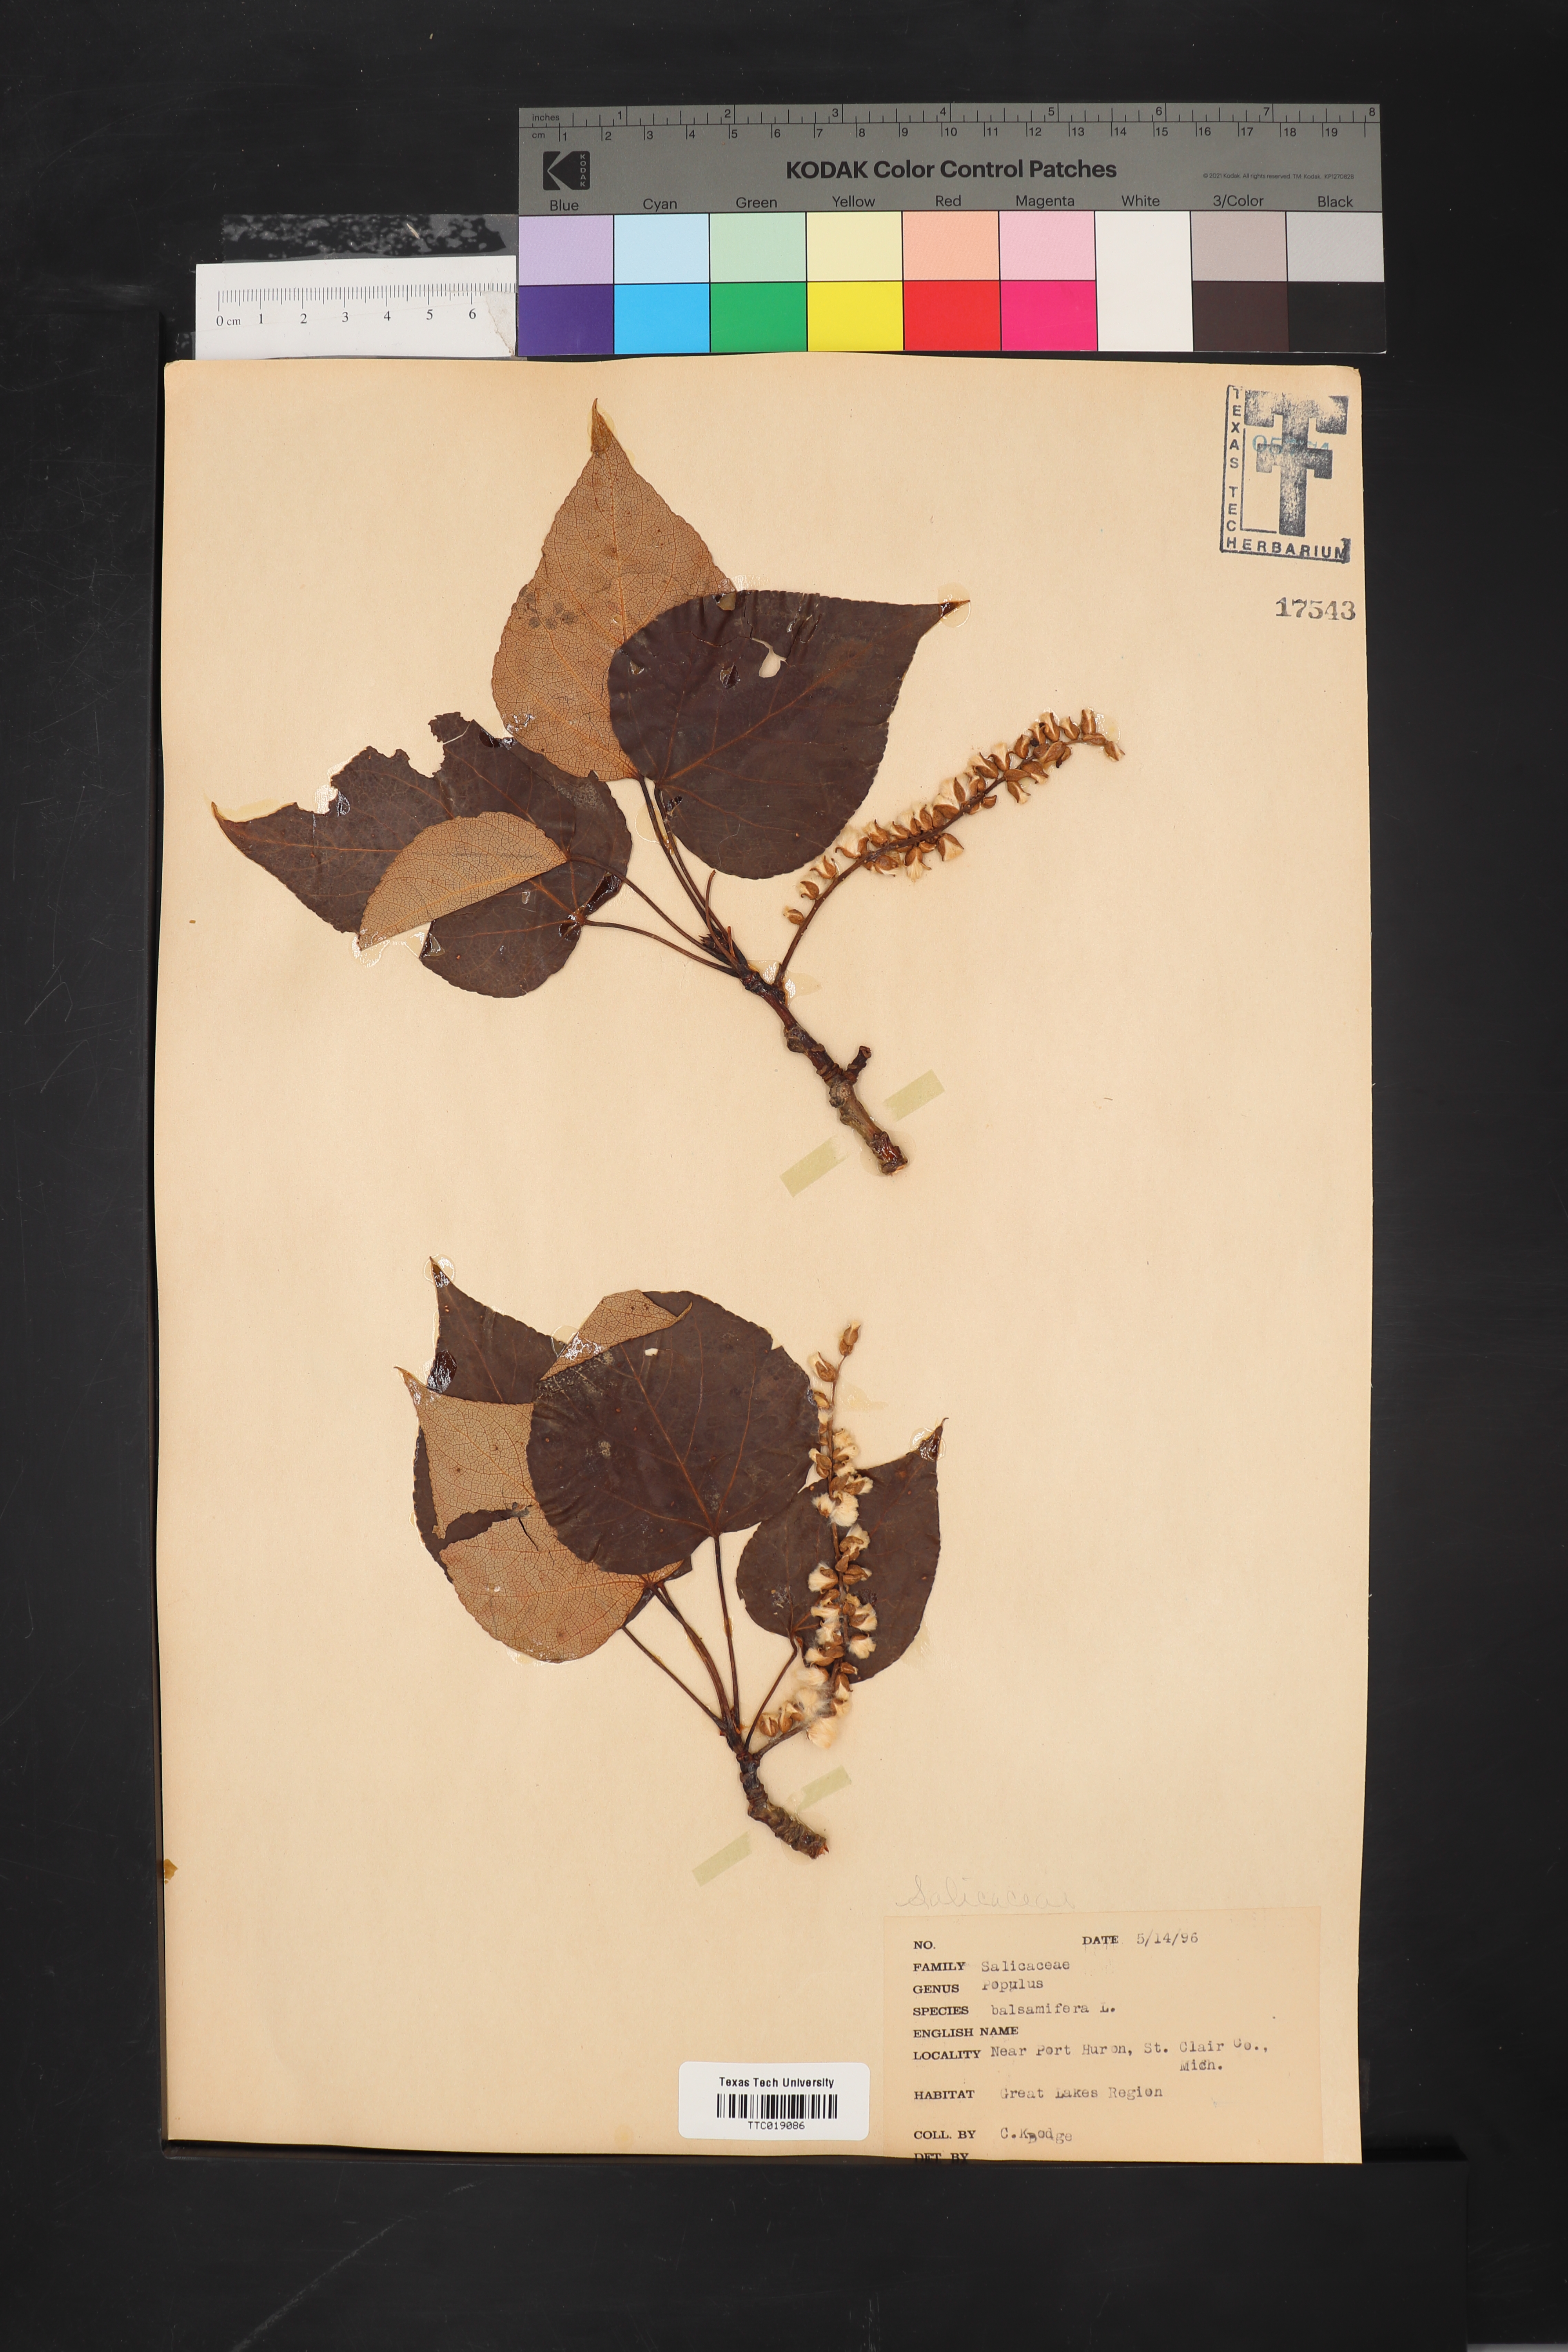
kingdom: Plantae
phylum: Tracheophyta
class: Magnoliopsida
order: Malpighiales
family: Salicaceae
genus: Populus
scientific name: Populus balsamifera
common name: Balsam poplar
